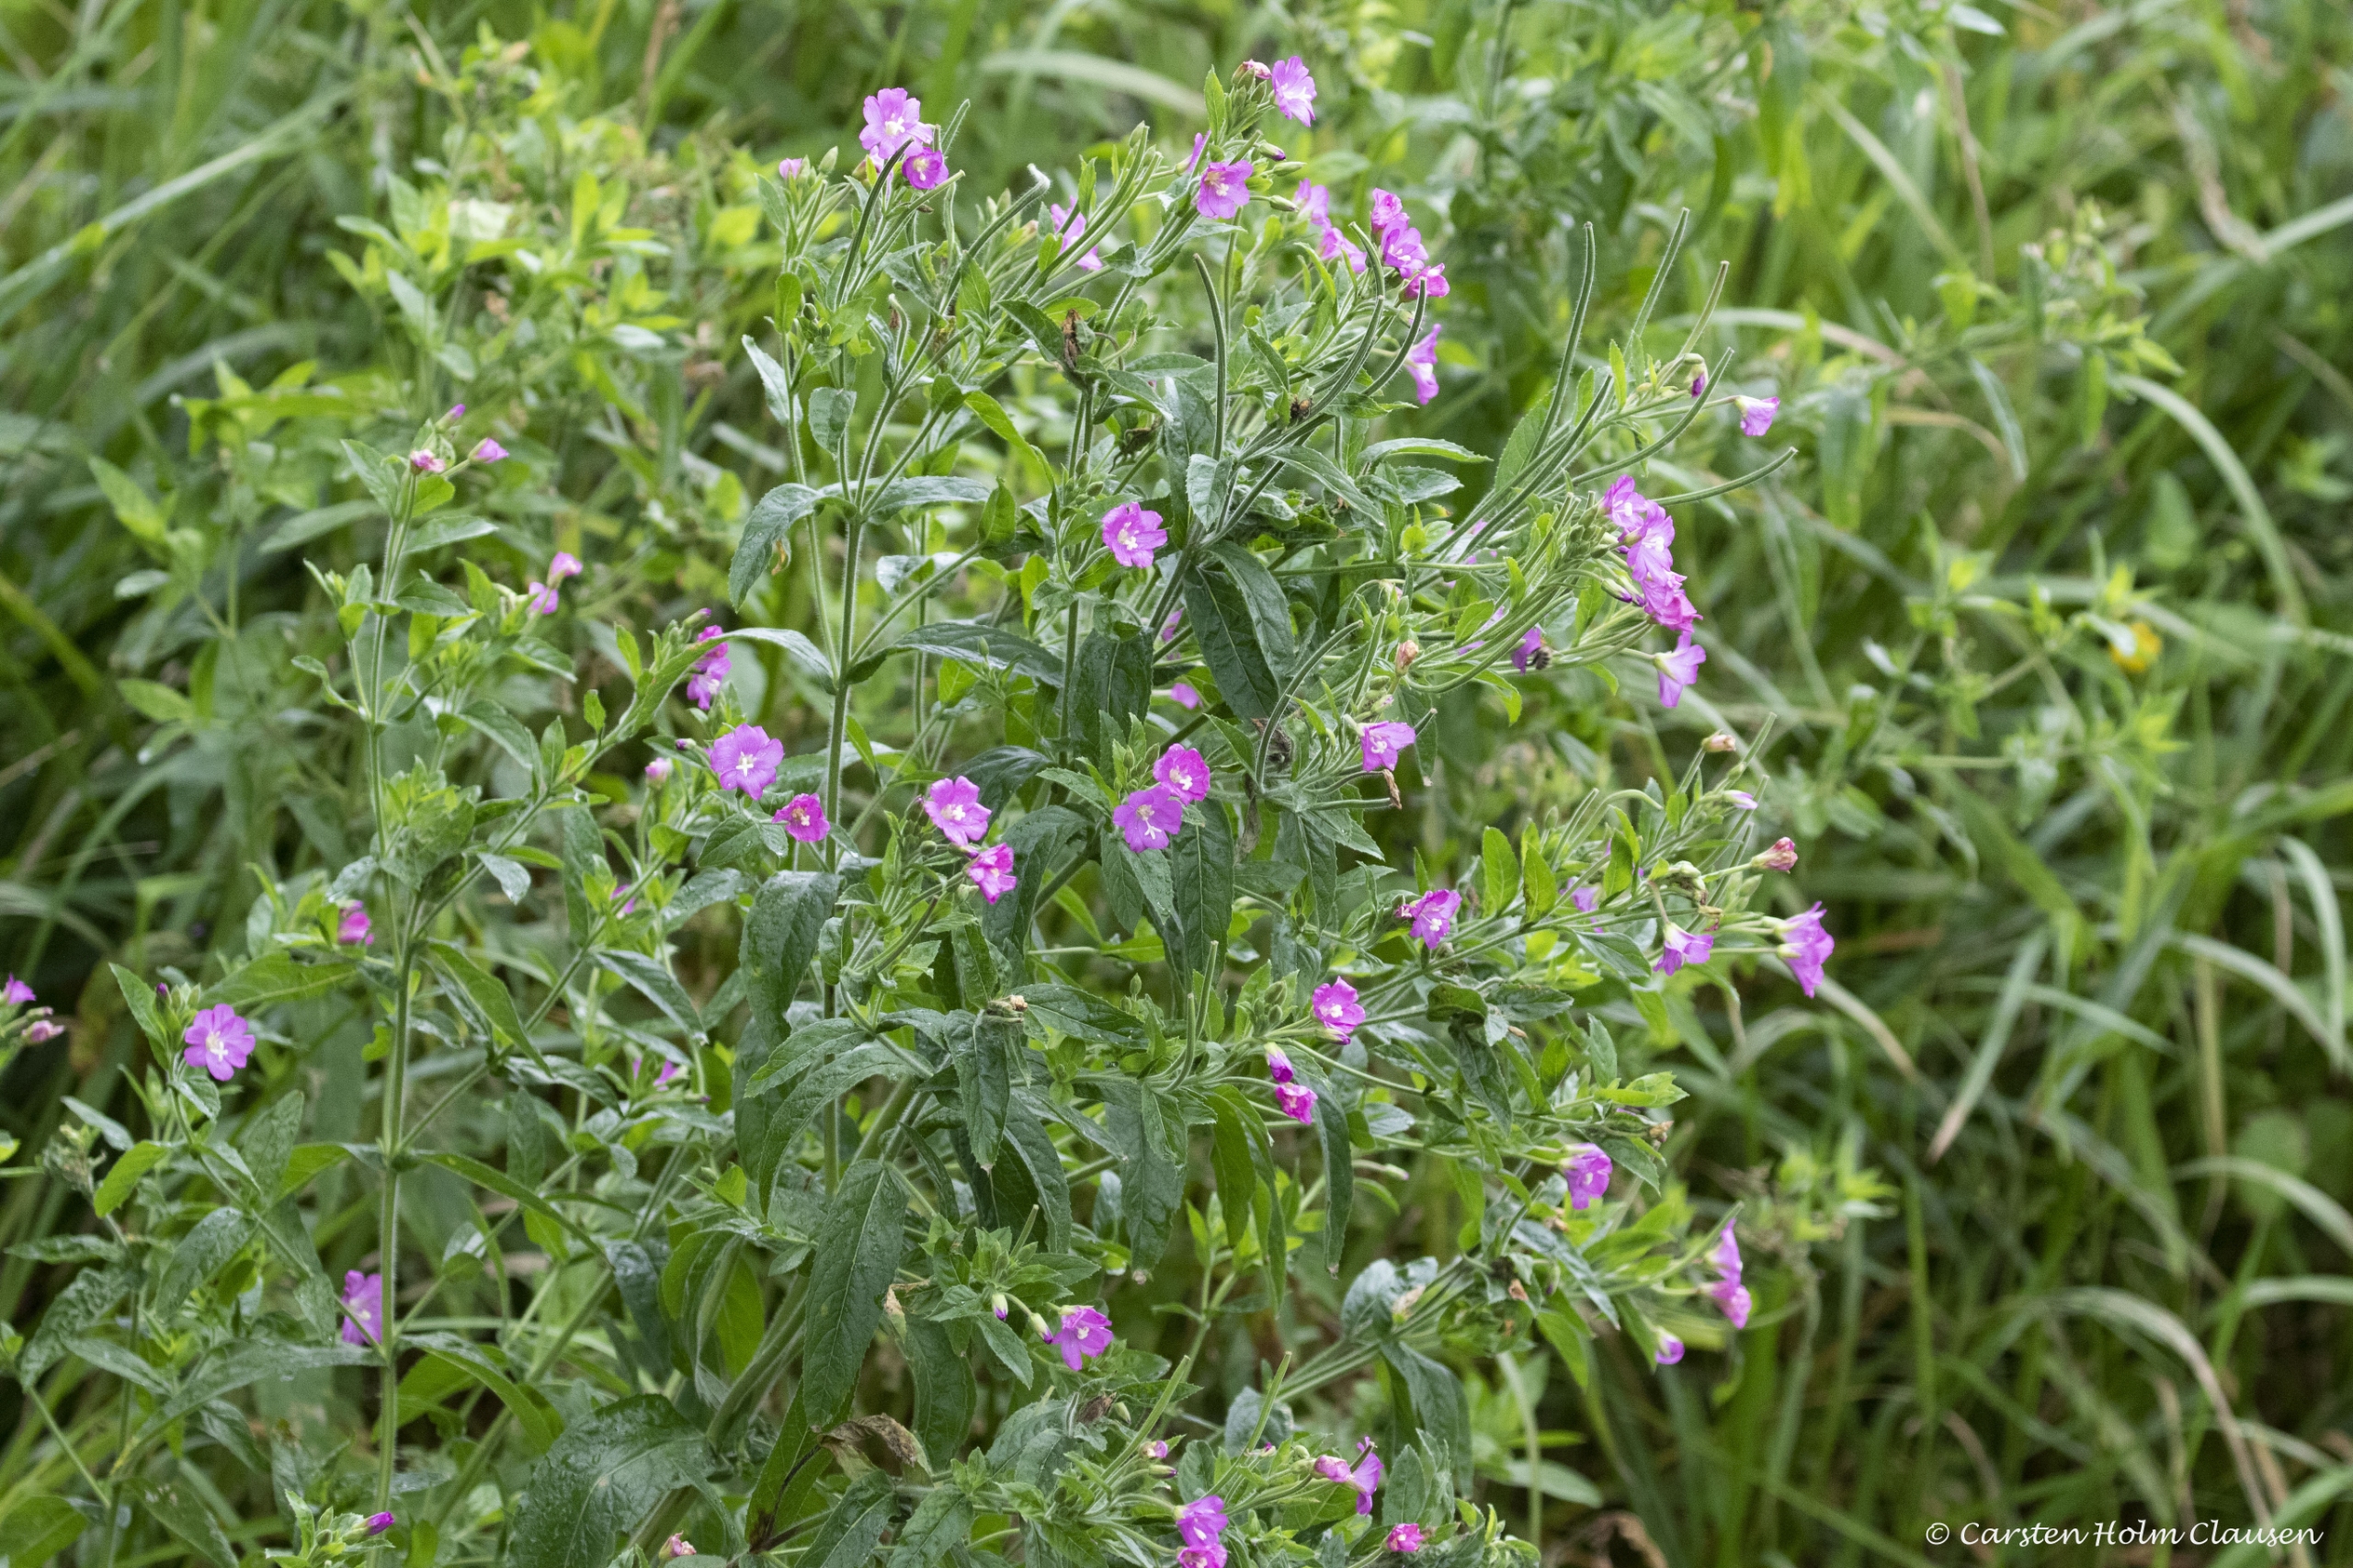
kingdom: Plantae
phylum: Tracheophyta
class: Magnoliopsida
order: Myrtales
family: Onagraceae
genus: Epilobium
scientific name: Epilobium hirsutum
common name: Lådden dueurt
